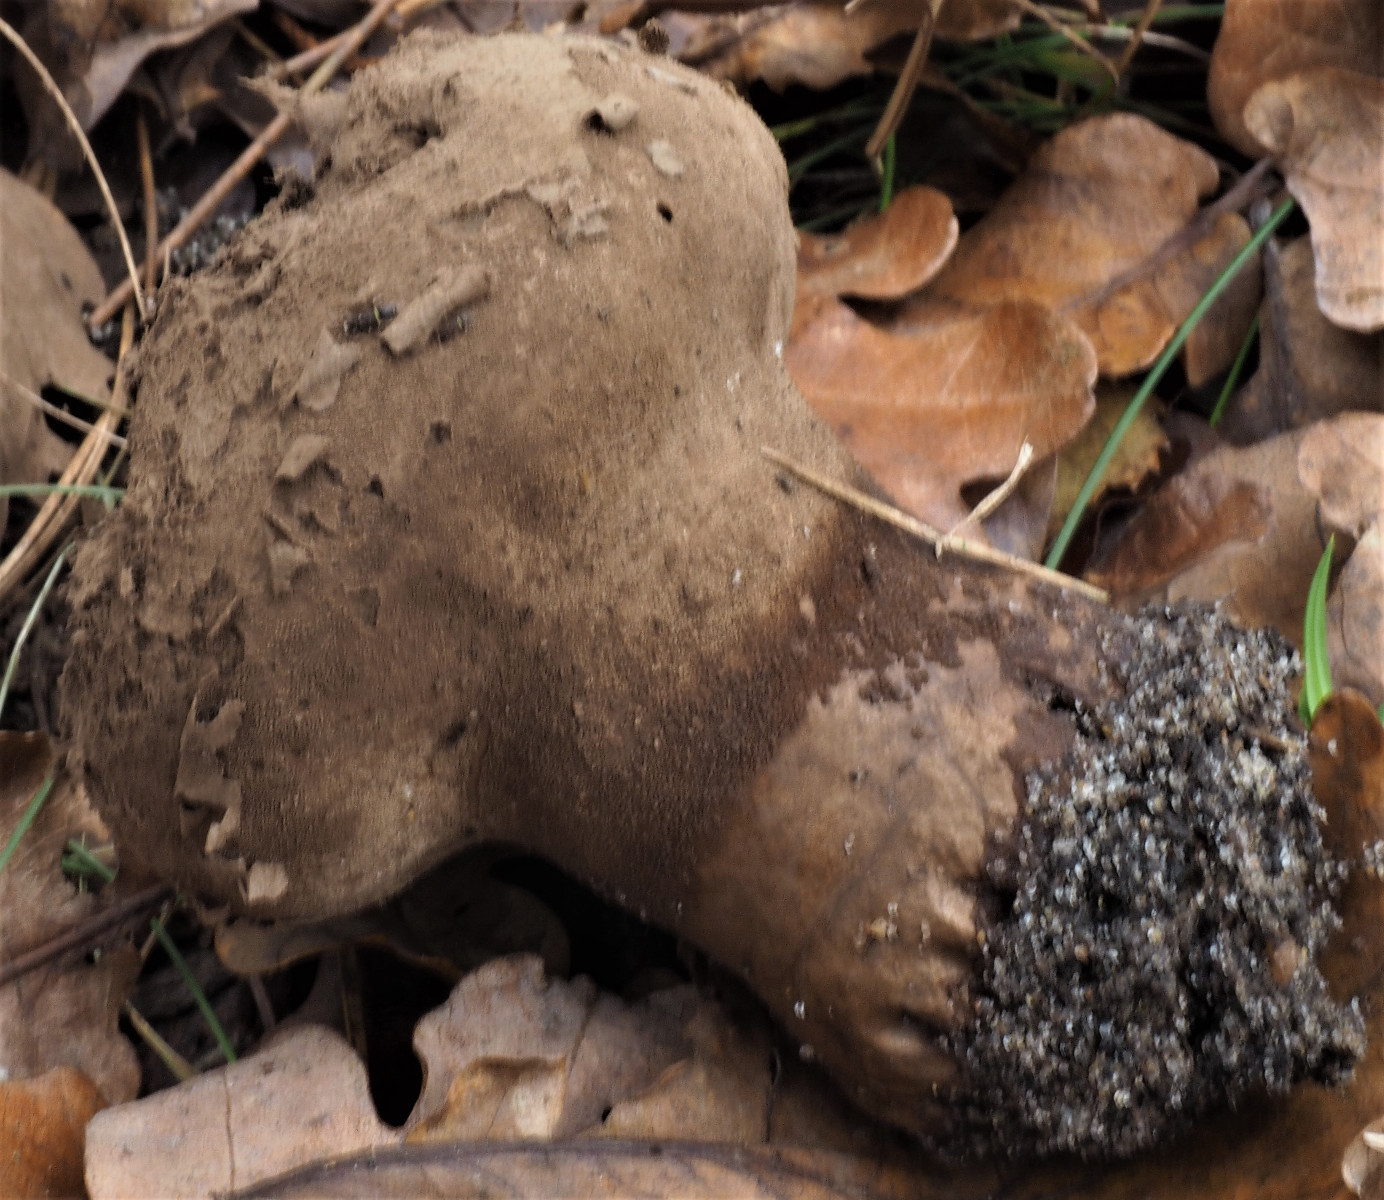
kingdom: Fungi
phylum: Basidiomycota
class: Agaricomycetes
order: Agaricales
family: Lycoperdaceae
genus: Lycoperdon
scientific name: Lycoperdon excipuliforme
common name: højstokket støvbold
